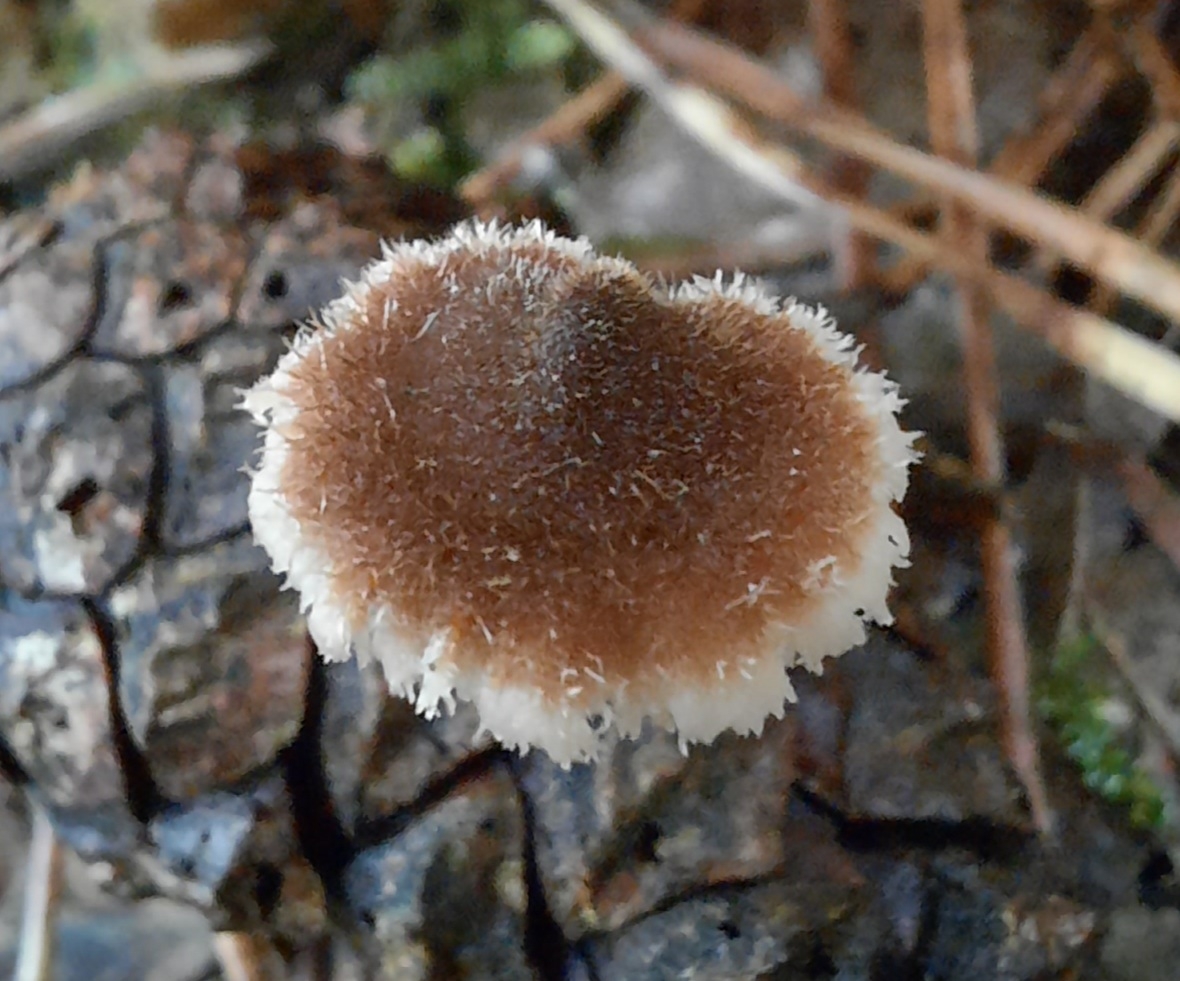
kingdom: Fungi
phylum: Basidiomycota
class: Agaricomycetes
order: Russulales
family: Auriscalpiaceae
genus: Auriscalpium
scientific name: Auriscalpium vulgare
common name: koglepigsvamp
